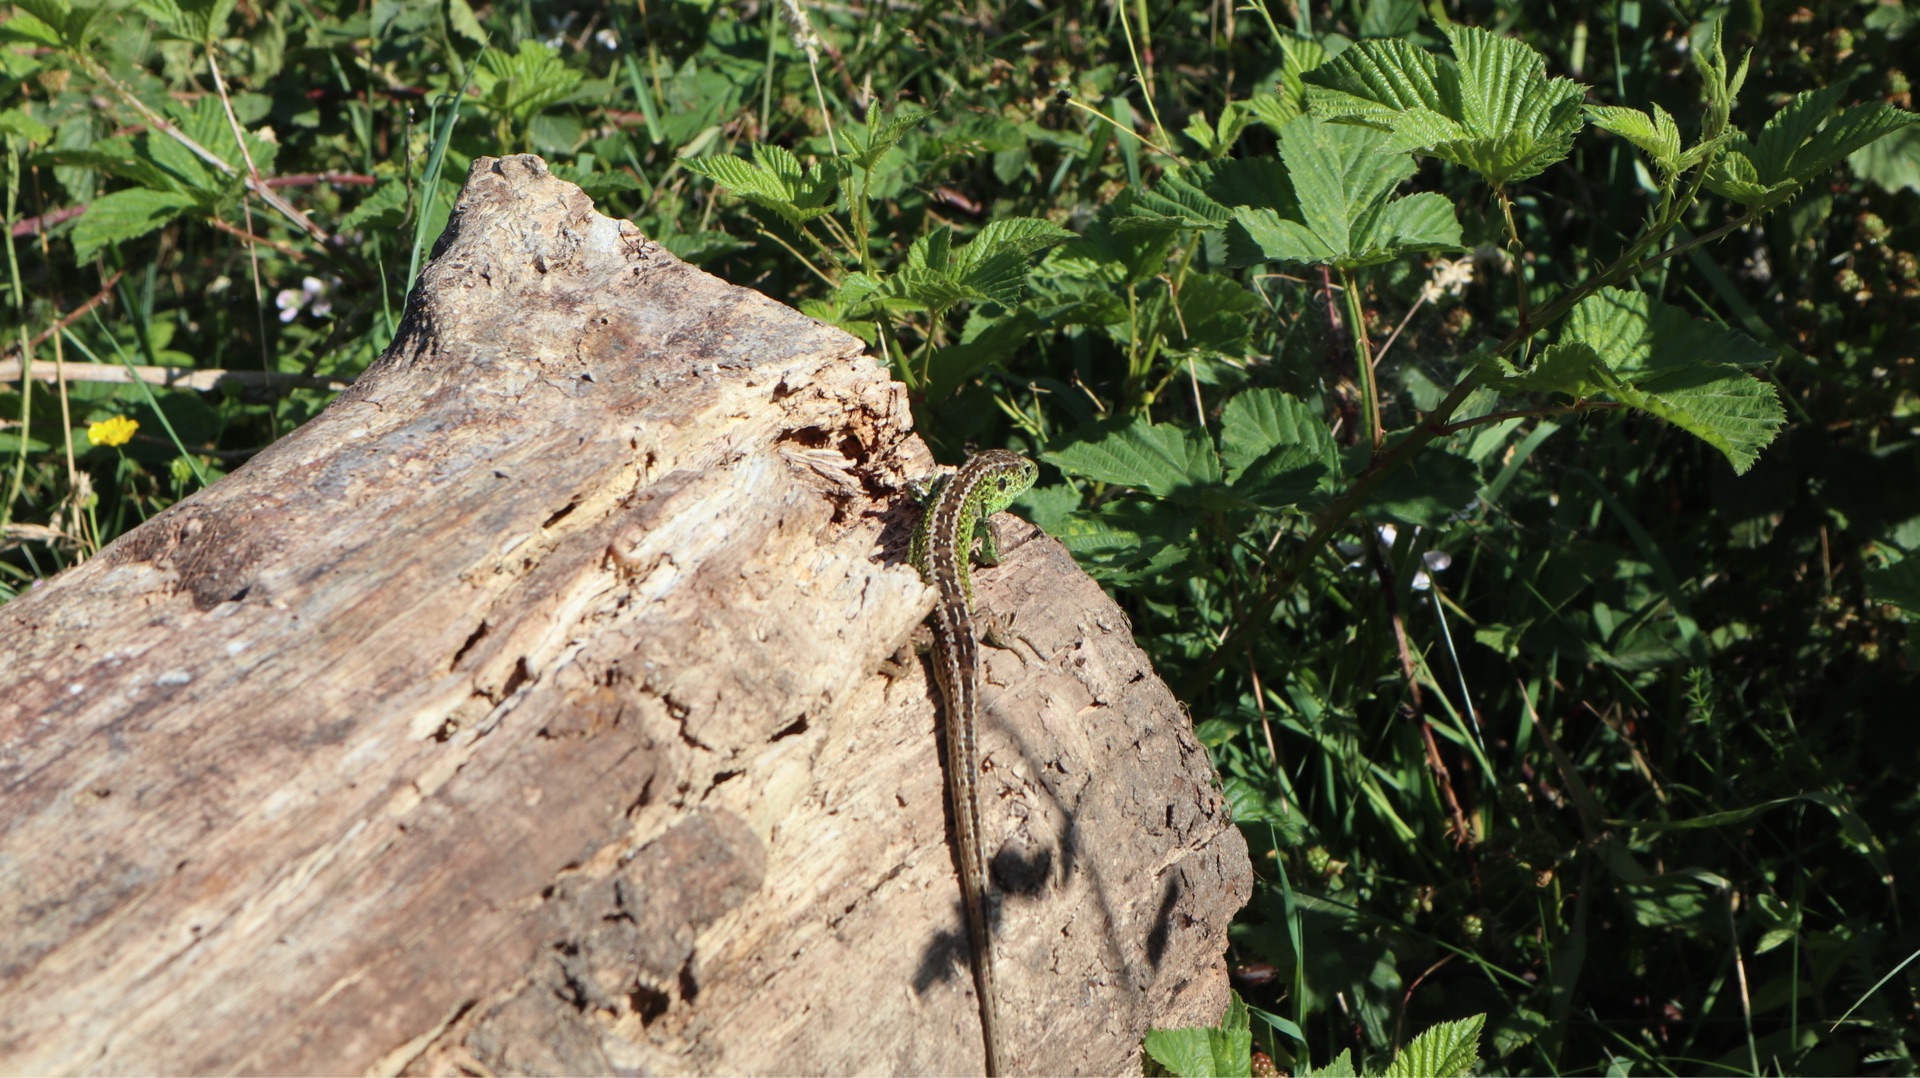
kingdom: Animalia
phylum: Chordata
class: Squamata
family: Lacertidae
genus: Lacerta
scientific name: Lacerta agilis
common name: Markfirben
